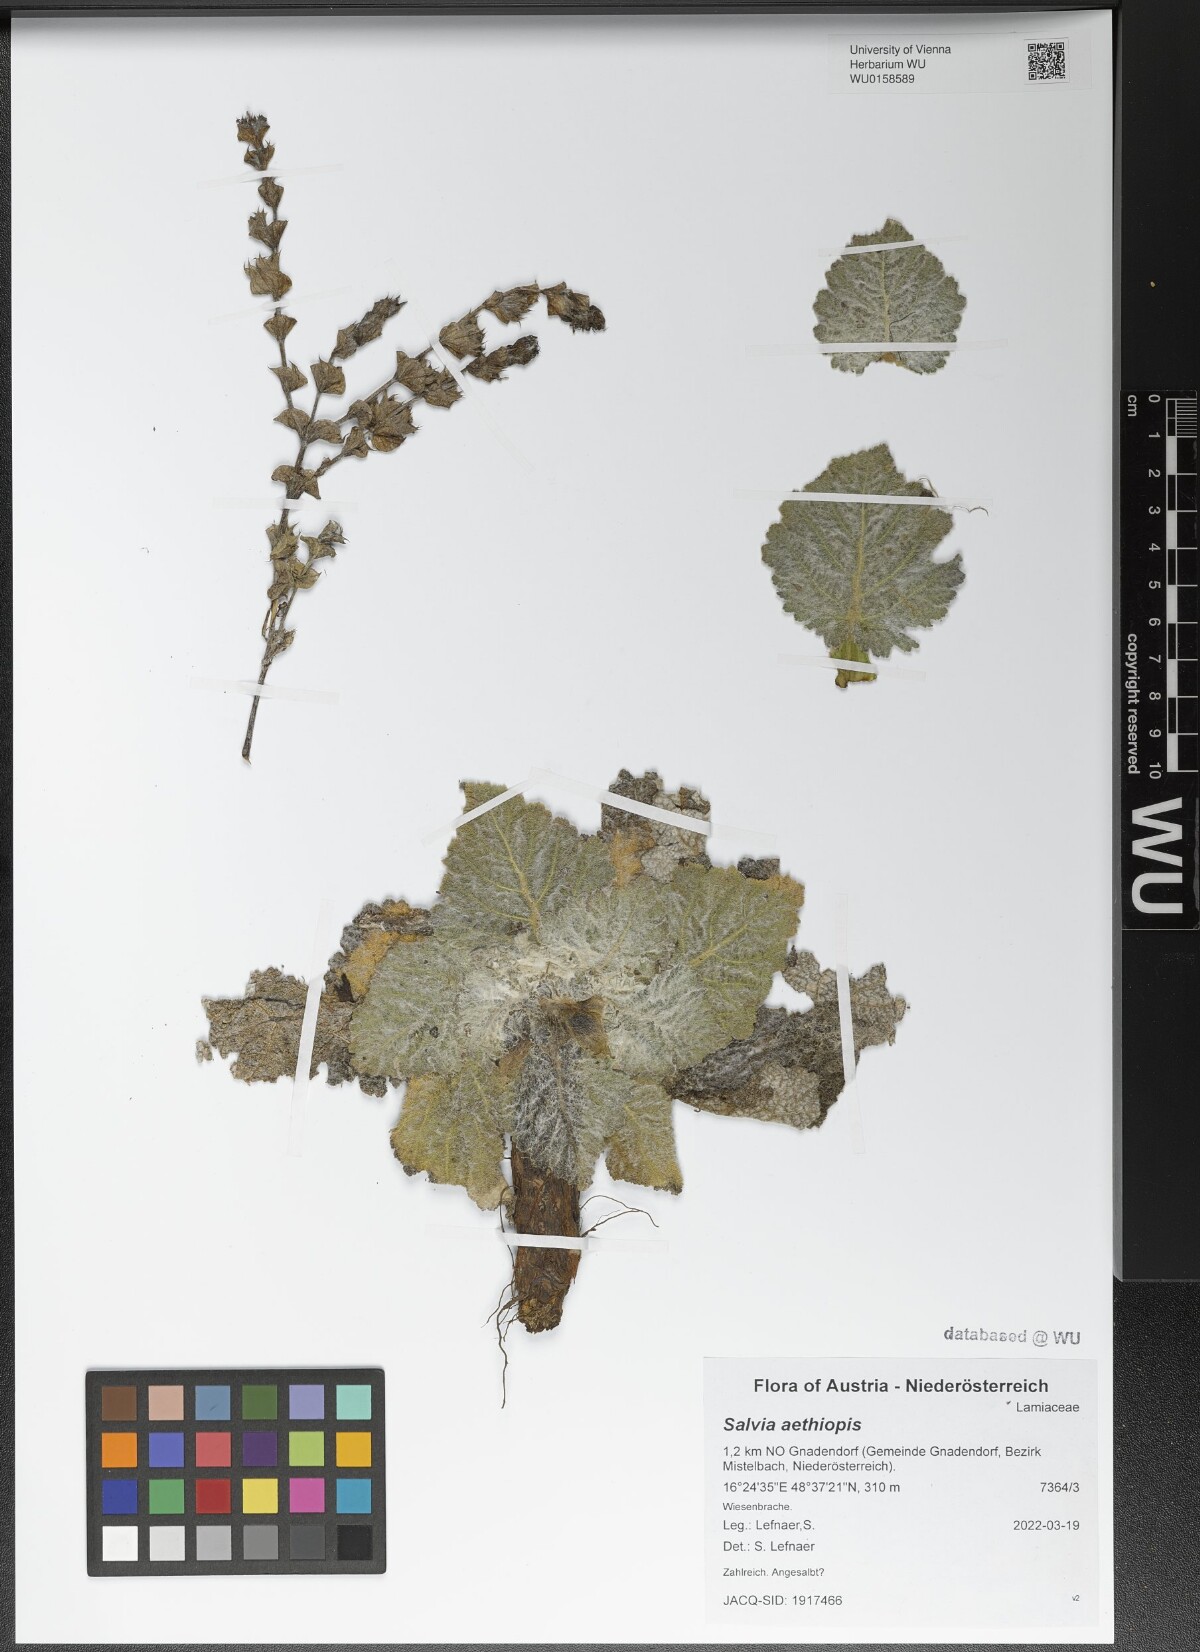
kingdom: Plantae
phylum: Tracheophyta
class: Magnoliopsida
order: Lamiales
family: Lamiaceae
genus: Salvia
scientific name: Salvia aethiopis
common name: Mediterranean sage
